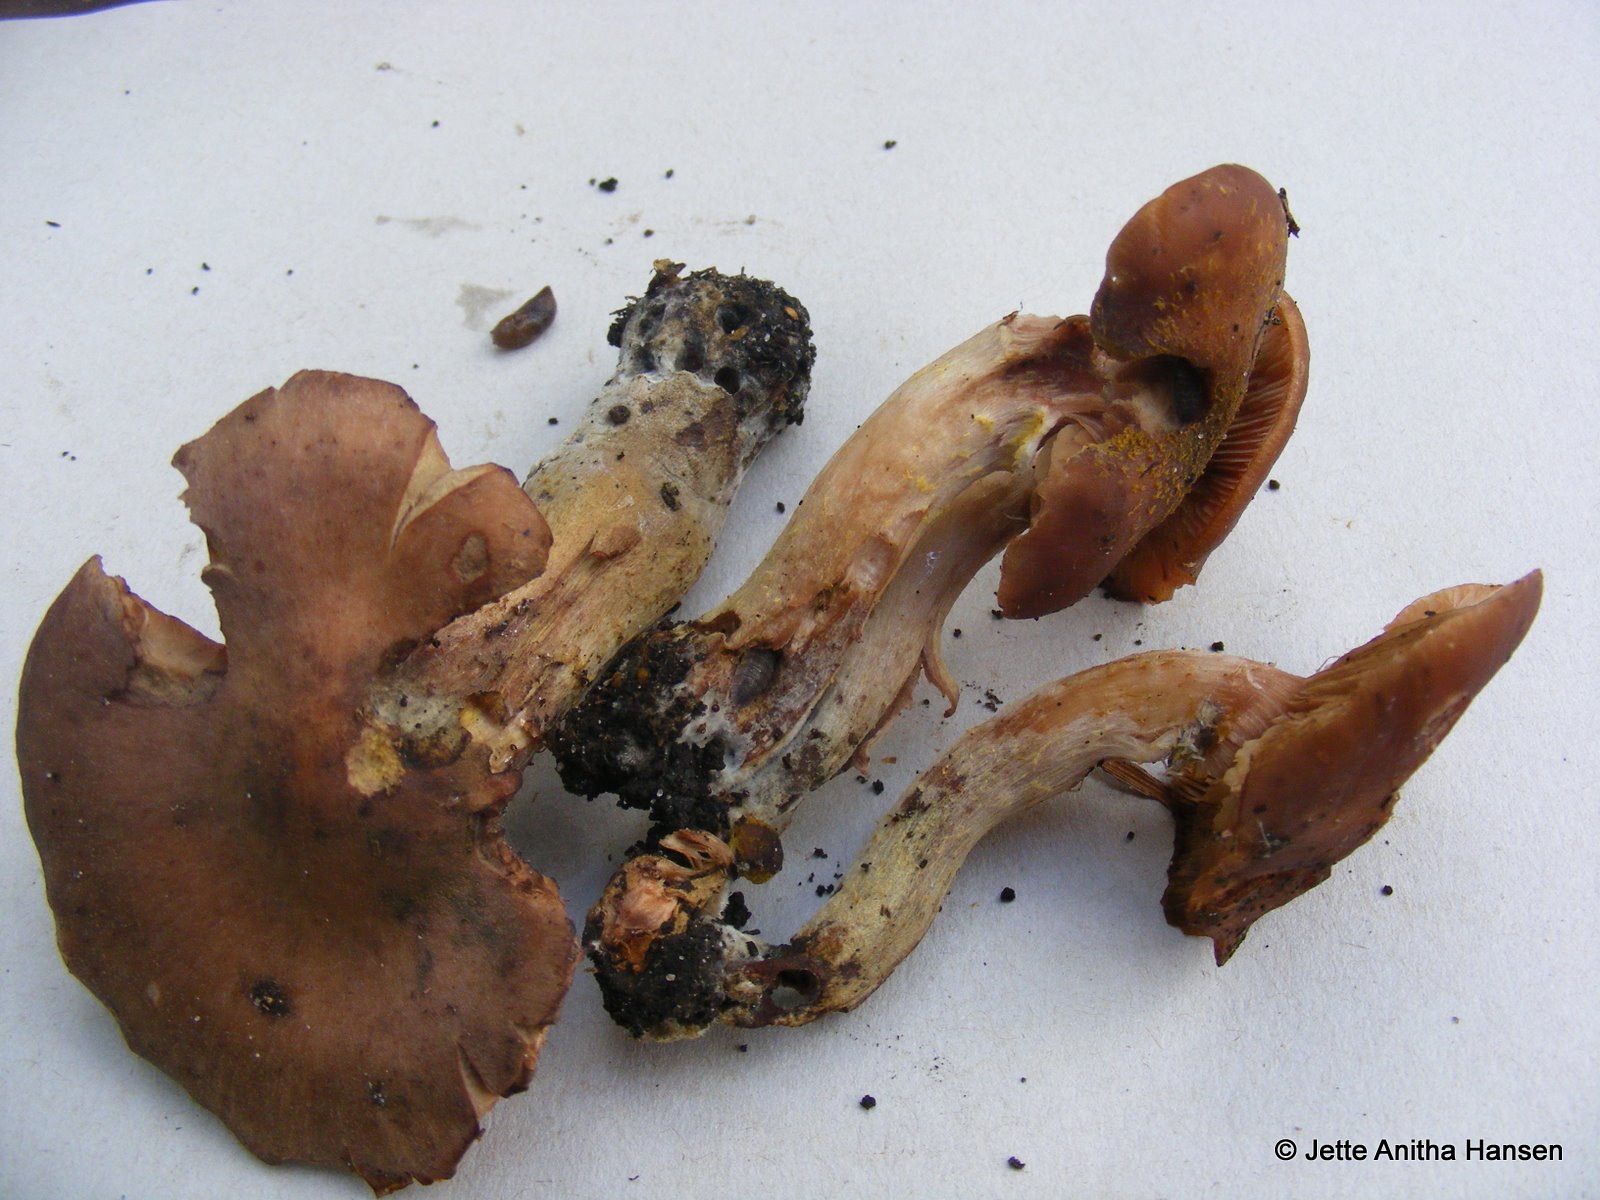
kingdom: Fungi
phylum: Basidiomycota
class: Agaricomycetes
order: Agaricales
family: Physalacriaceae
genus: Armillaria
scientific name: Armillaria lutea
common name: køllestokket honningsvamp
